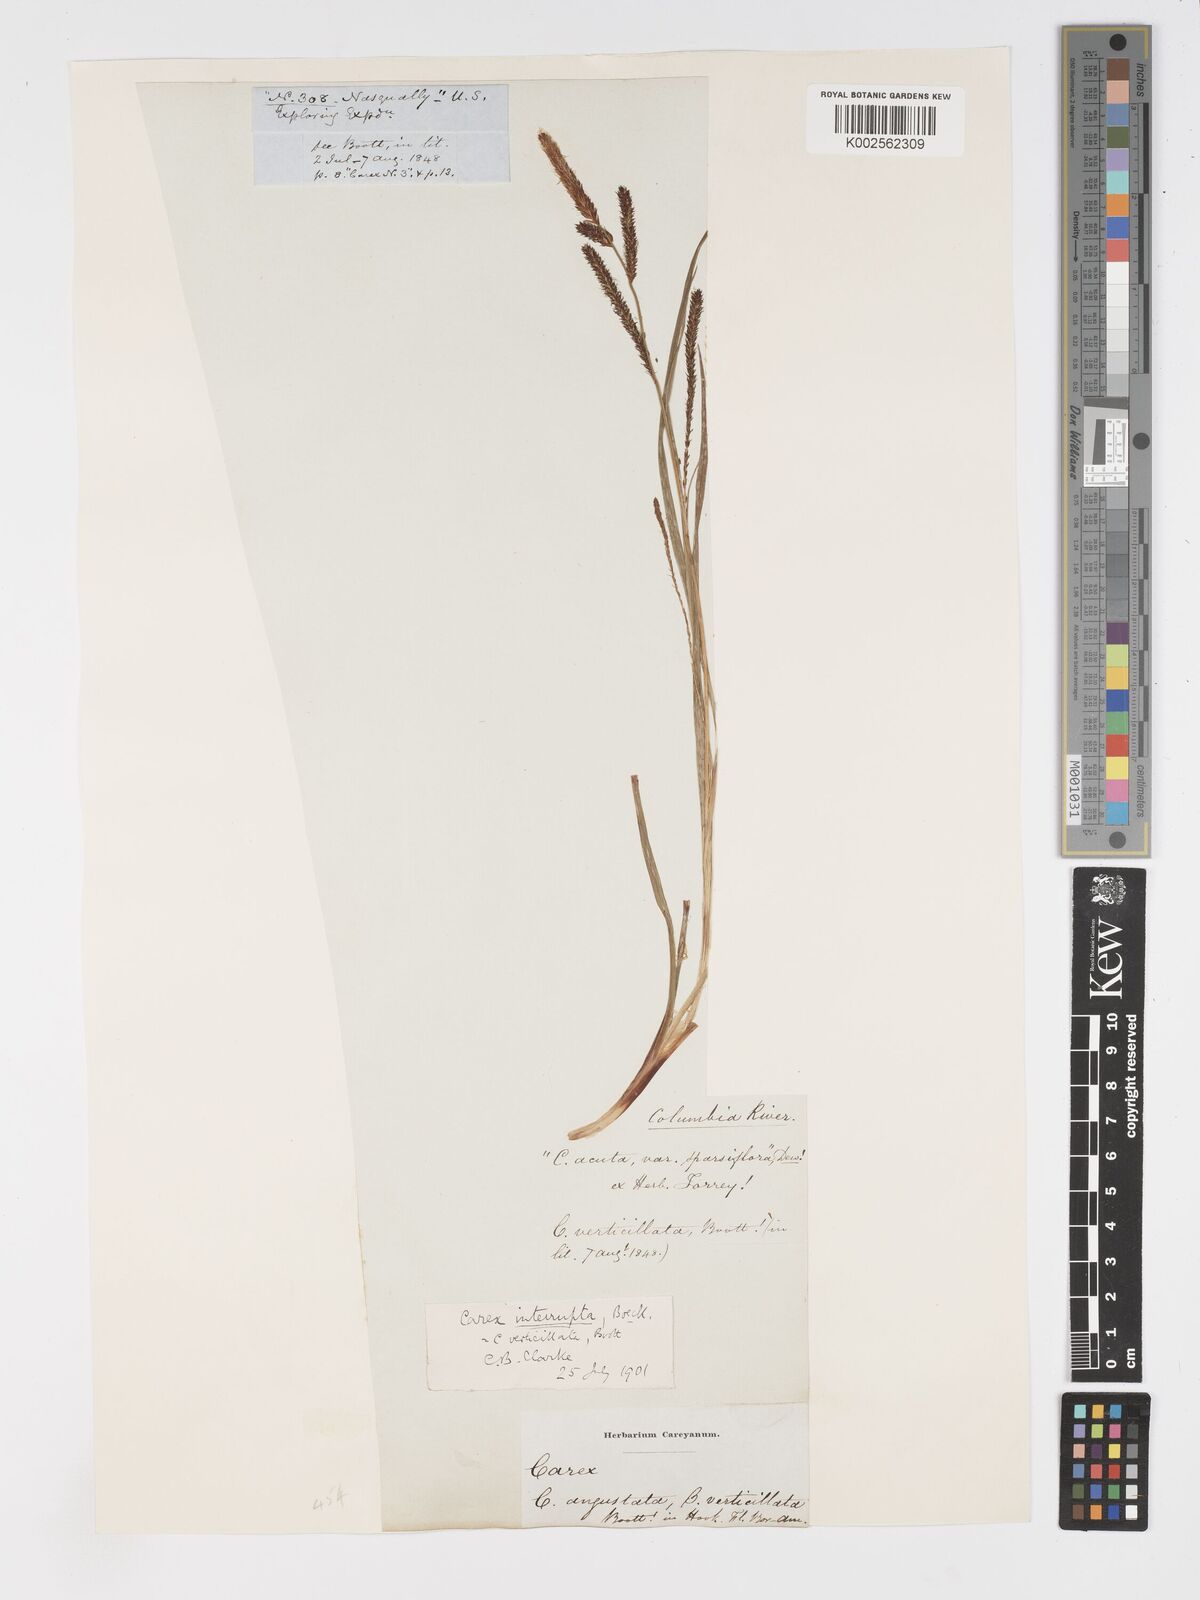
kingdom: Plantae
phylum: Tracheophyta
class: Liliopsida
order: Poales
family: Cyperaceae
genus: Carex
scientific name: Carex interrupta
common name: Green-fruited sedge
